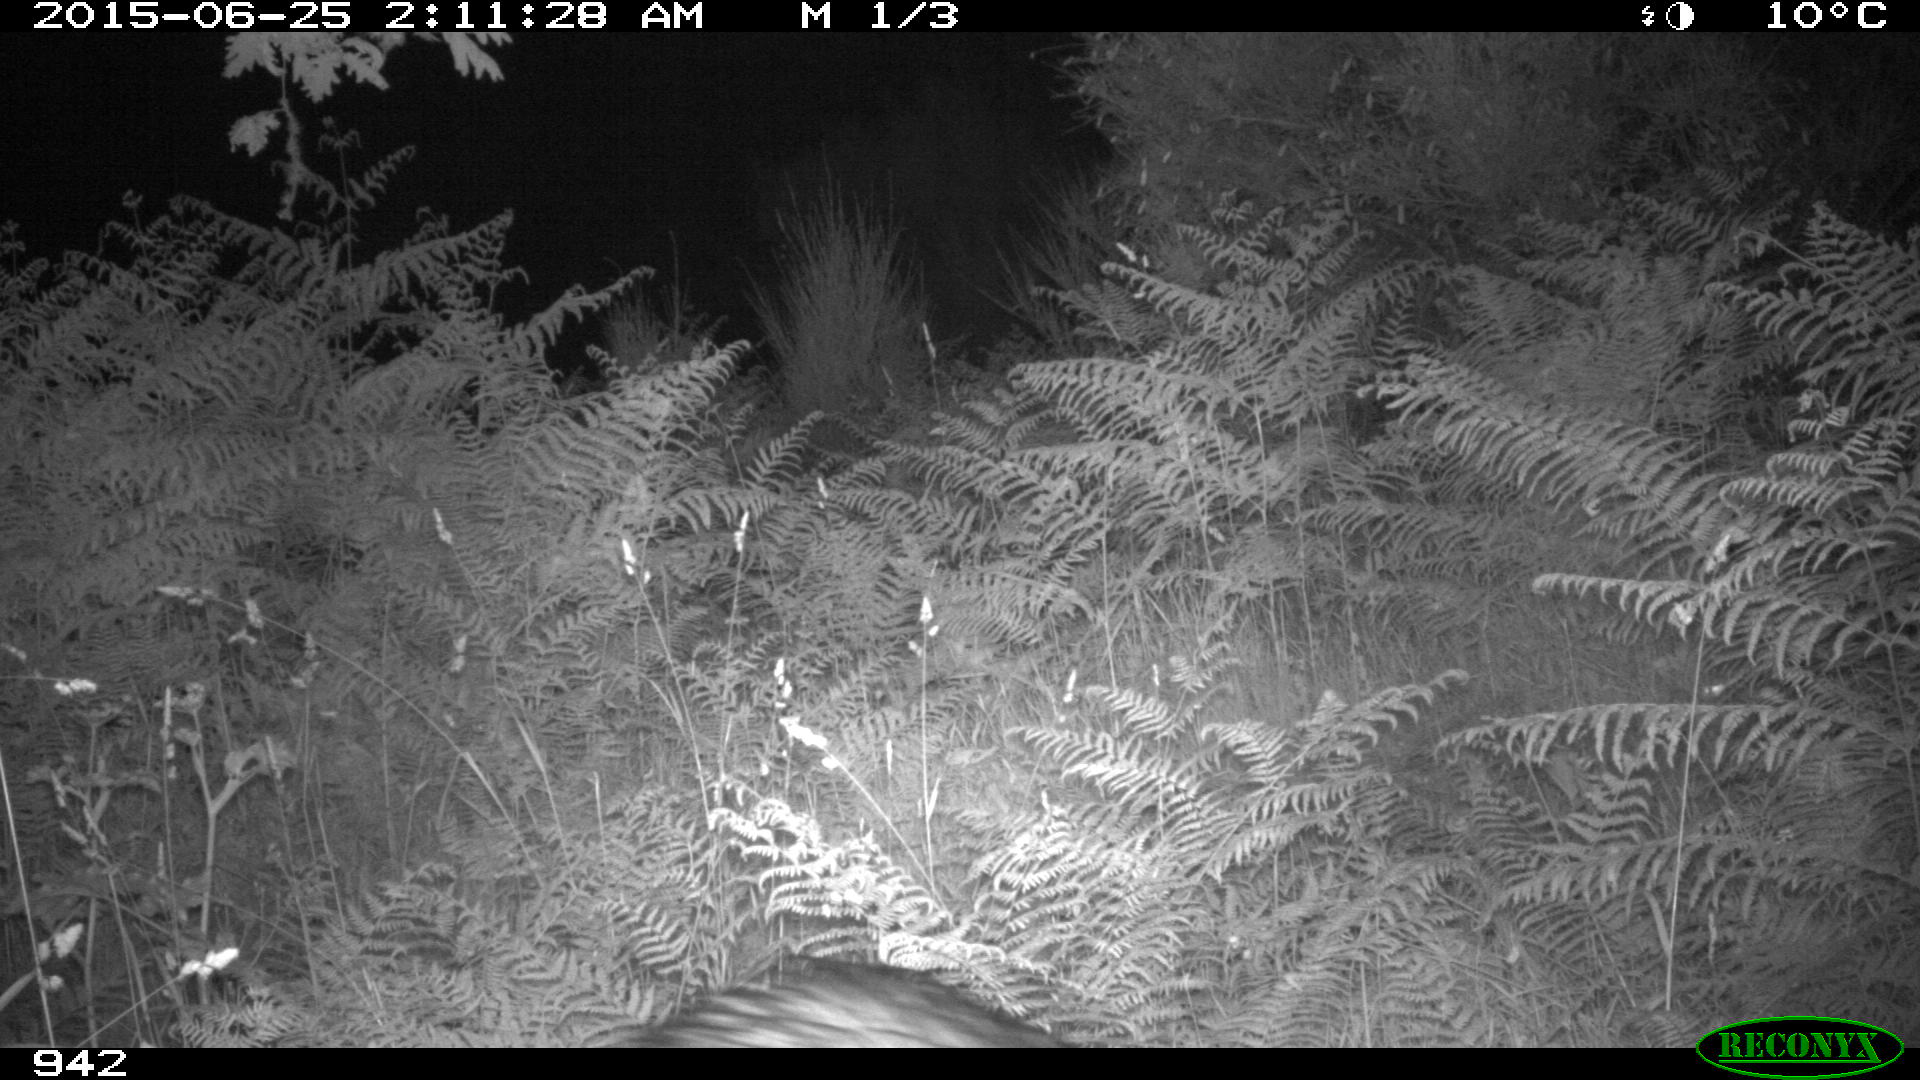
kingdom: Animalia
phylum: Chordata
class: Mammalia
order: Artiodactyla
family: Suidae
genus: Sus
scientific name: Sus scrofa
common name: Wild boar
